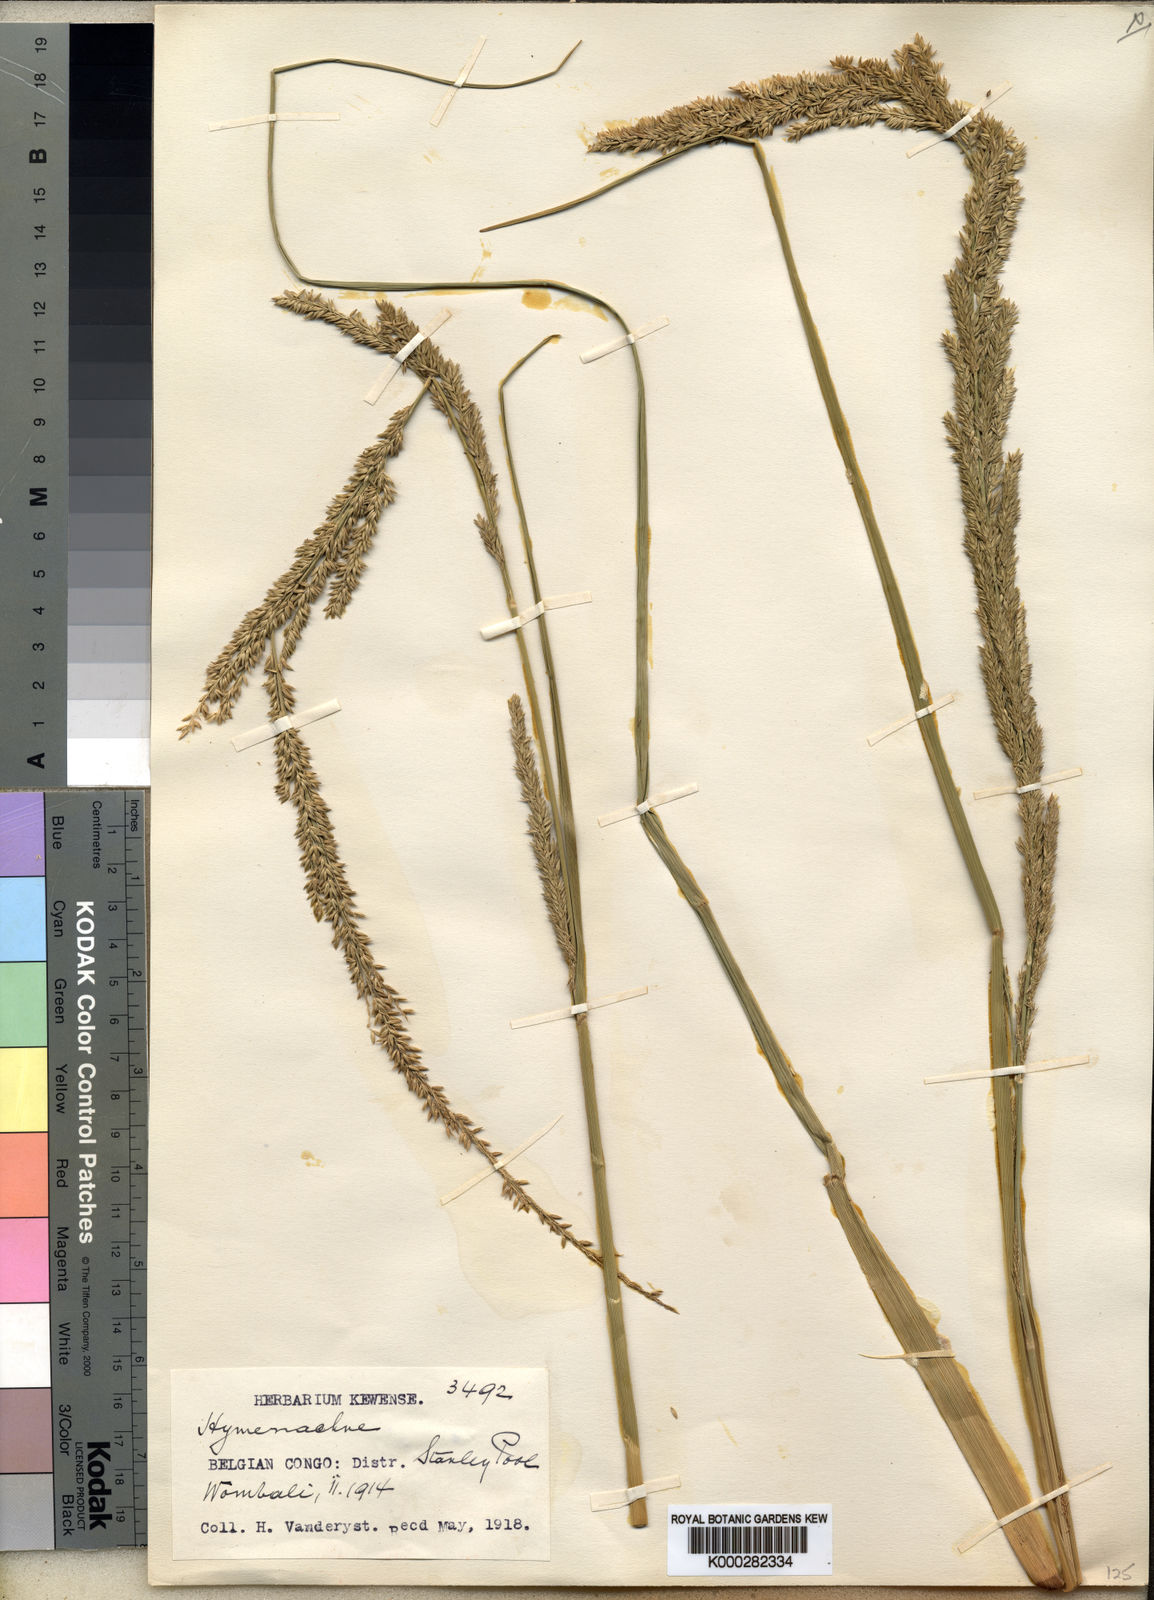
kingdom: Plantae
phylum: Tracheophyta
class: Liliopsida
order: Poales
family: Poaceae
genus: Hymenachne
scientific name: Hymenachne
